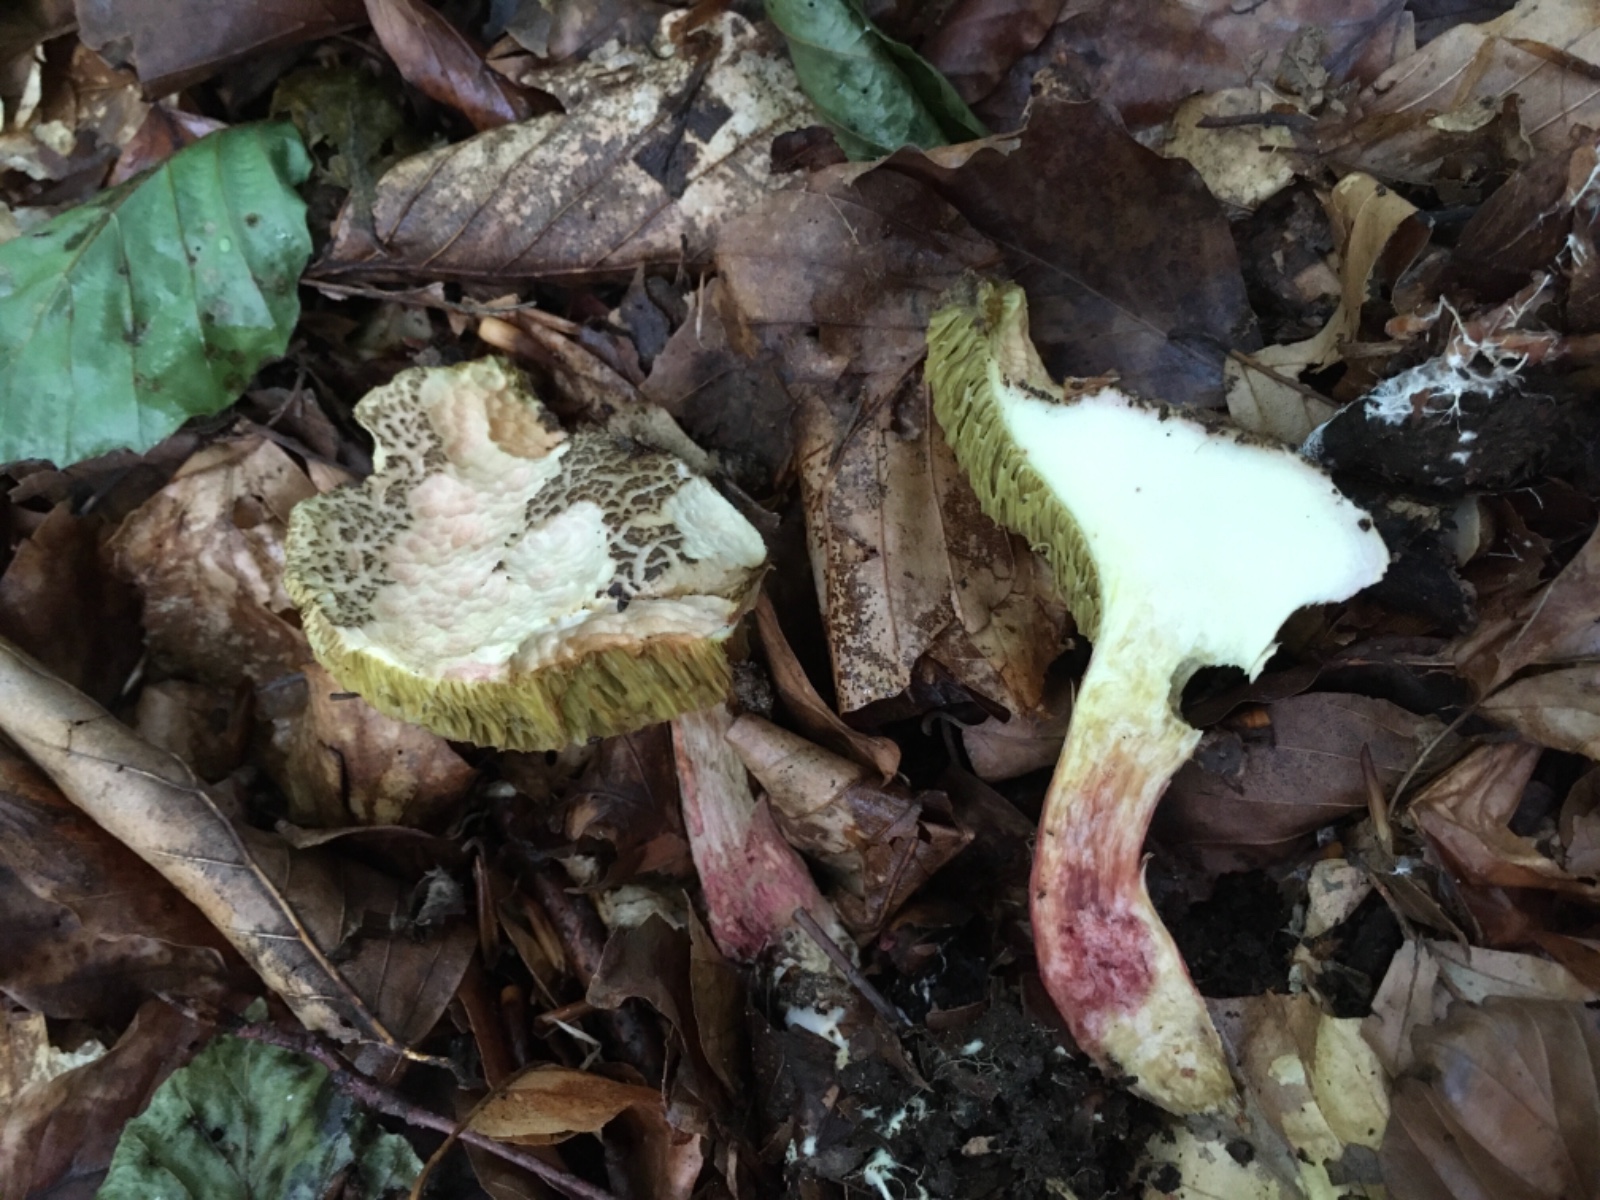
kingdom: Fungi
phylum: Basidiomycota
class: Agaricomycetes
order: Boletales
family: Boletaceae
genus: Xerocomellus
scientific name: Xerocomellus chrysenteron
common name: rødsprukken rørhat
